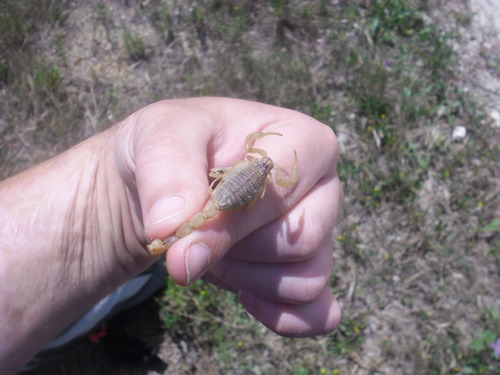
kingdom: Animalia
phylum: Arthropoda
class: Arachnida
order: Scorpiones
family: Buthidae
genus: Buthus
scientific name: Buthus ibericus
